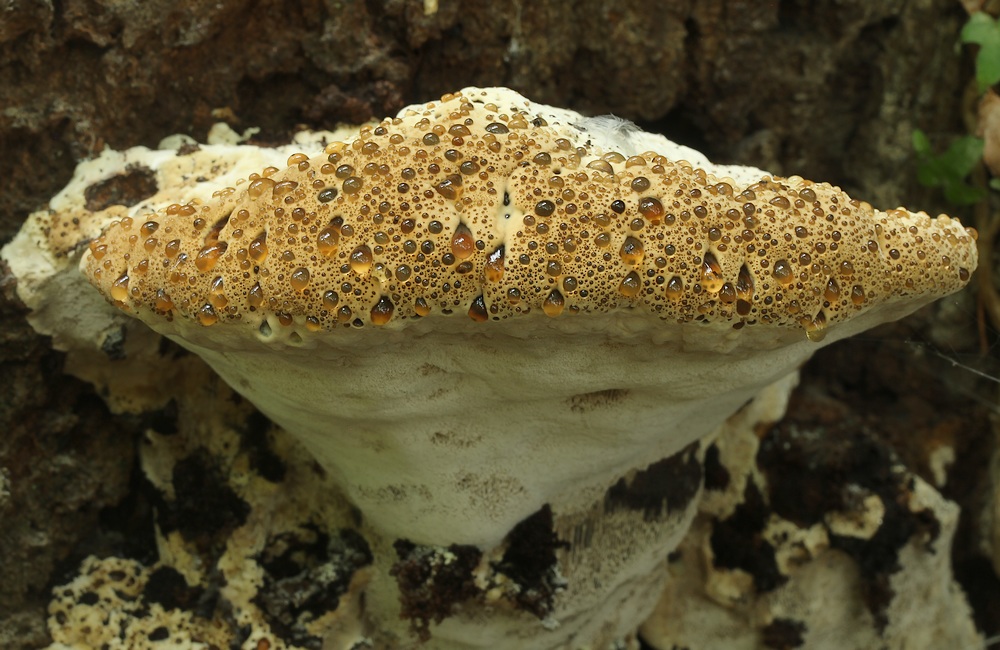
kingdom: Fungi
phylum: Basidiomycota
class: Agaricomycetes
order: Hymenochaetales
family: Hymenochaetaceae
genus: Pseudoinonotus
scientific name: Pseudoinonotus dryadeus
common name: ege-spejlporesvamp
